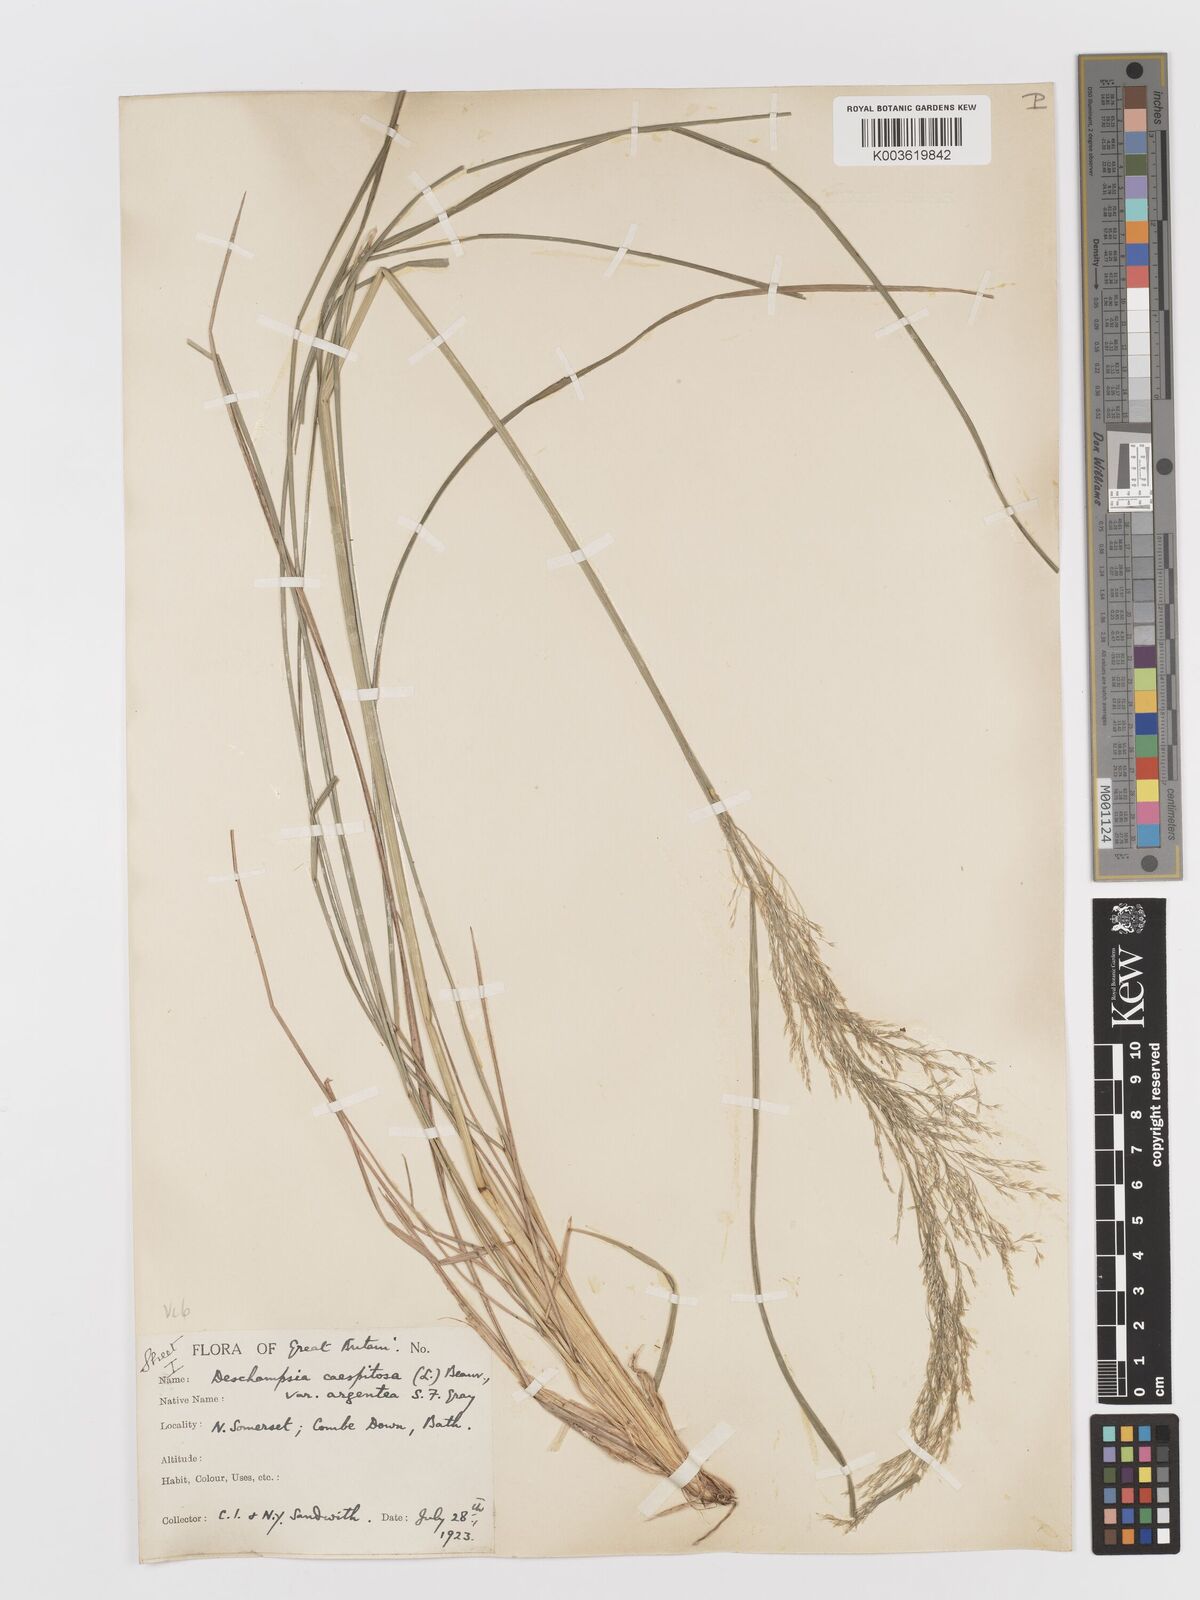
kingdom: Plantae
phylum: Tracheophyta
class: Liliopsida
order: Poales
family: Poaceae
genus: Deschampsia
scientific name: Deschampsia cespitosa
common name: Tufted hair-grass
